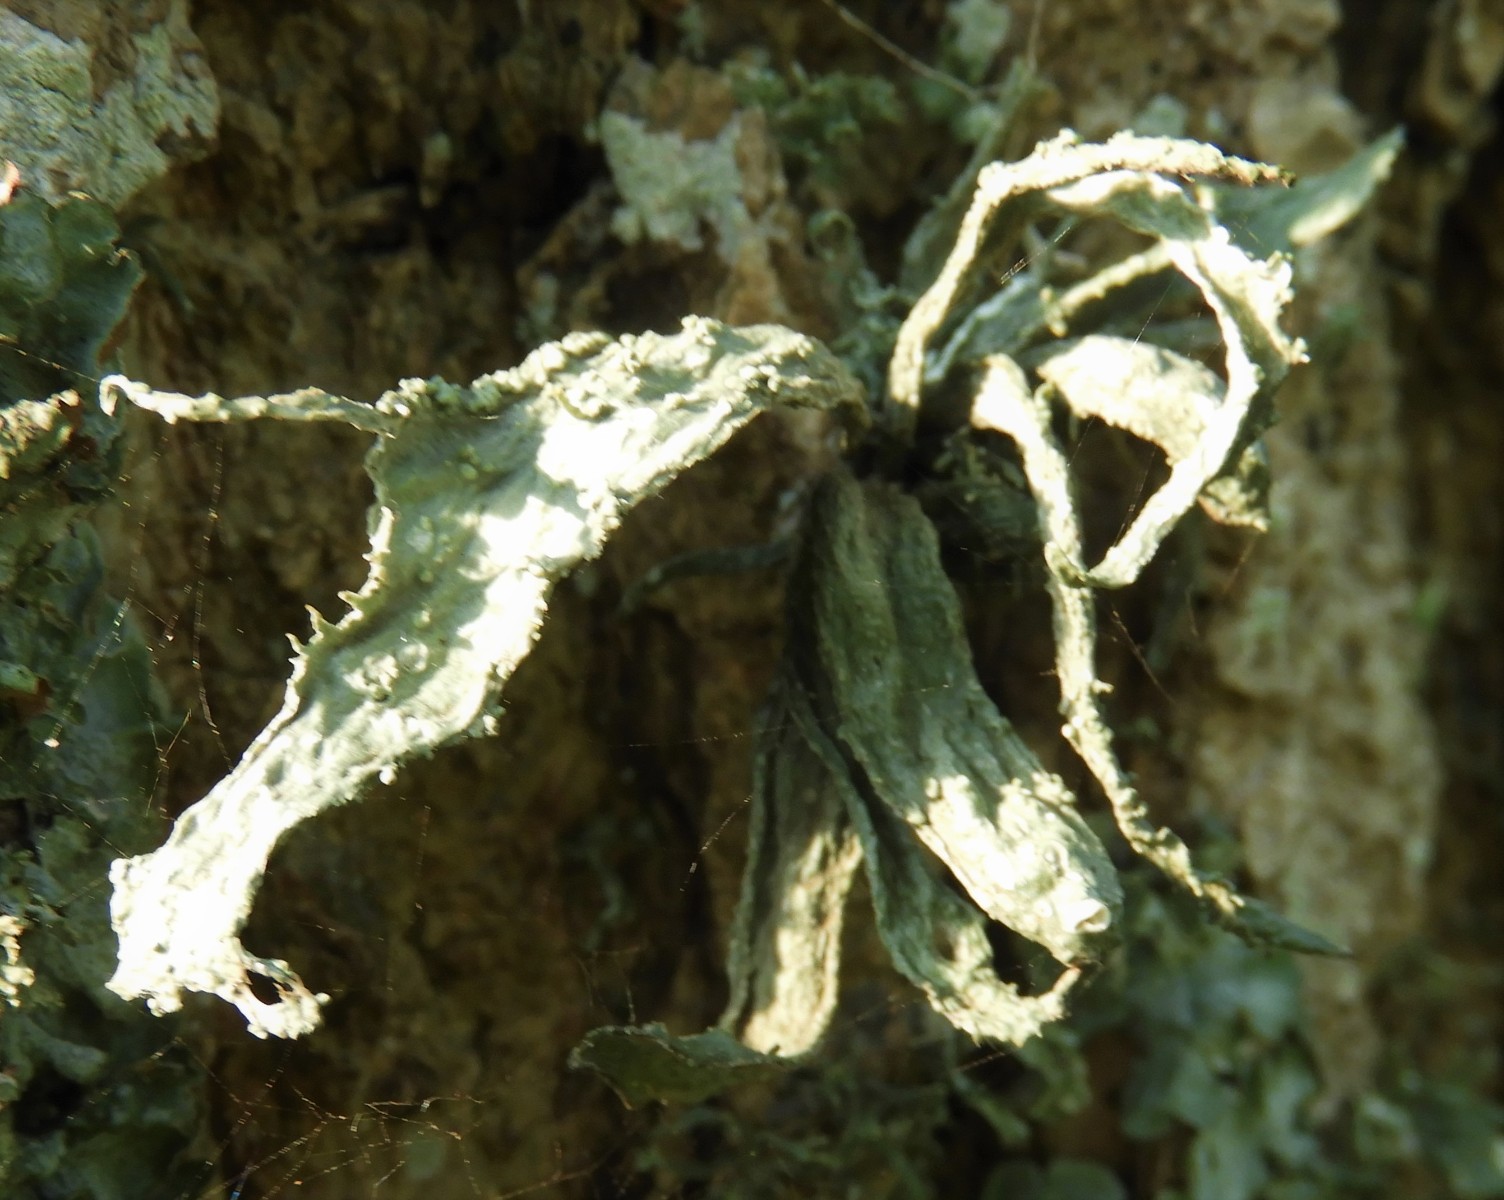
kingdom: Fungi
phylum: Ascomycota
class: Lecanoromycetes
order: Lecanorales
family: Ramalinaceae
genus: Ramalina
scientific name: Ramalina fraxinea
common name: stor grenlav
